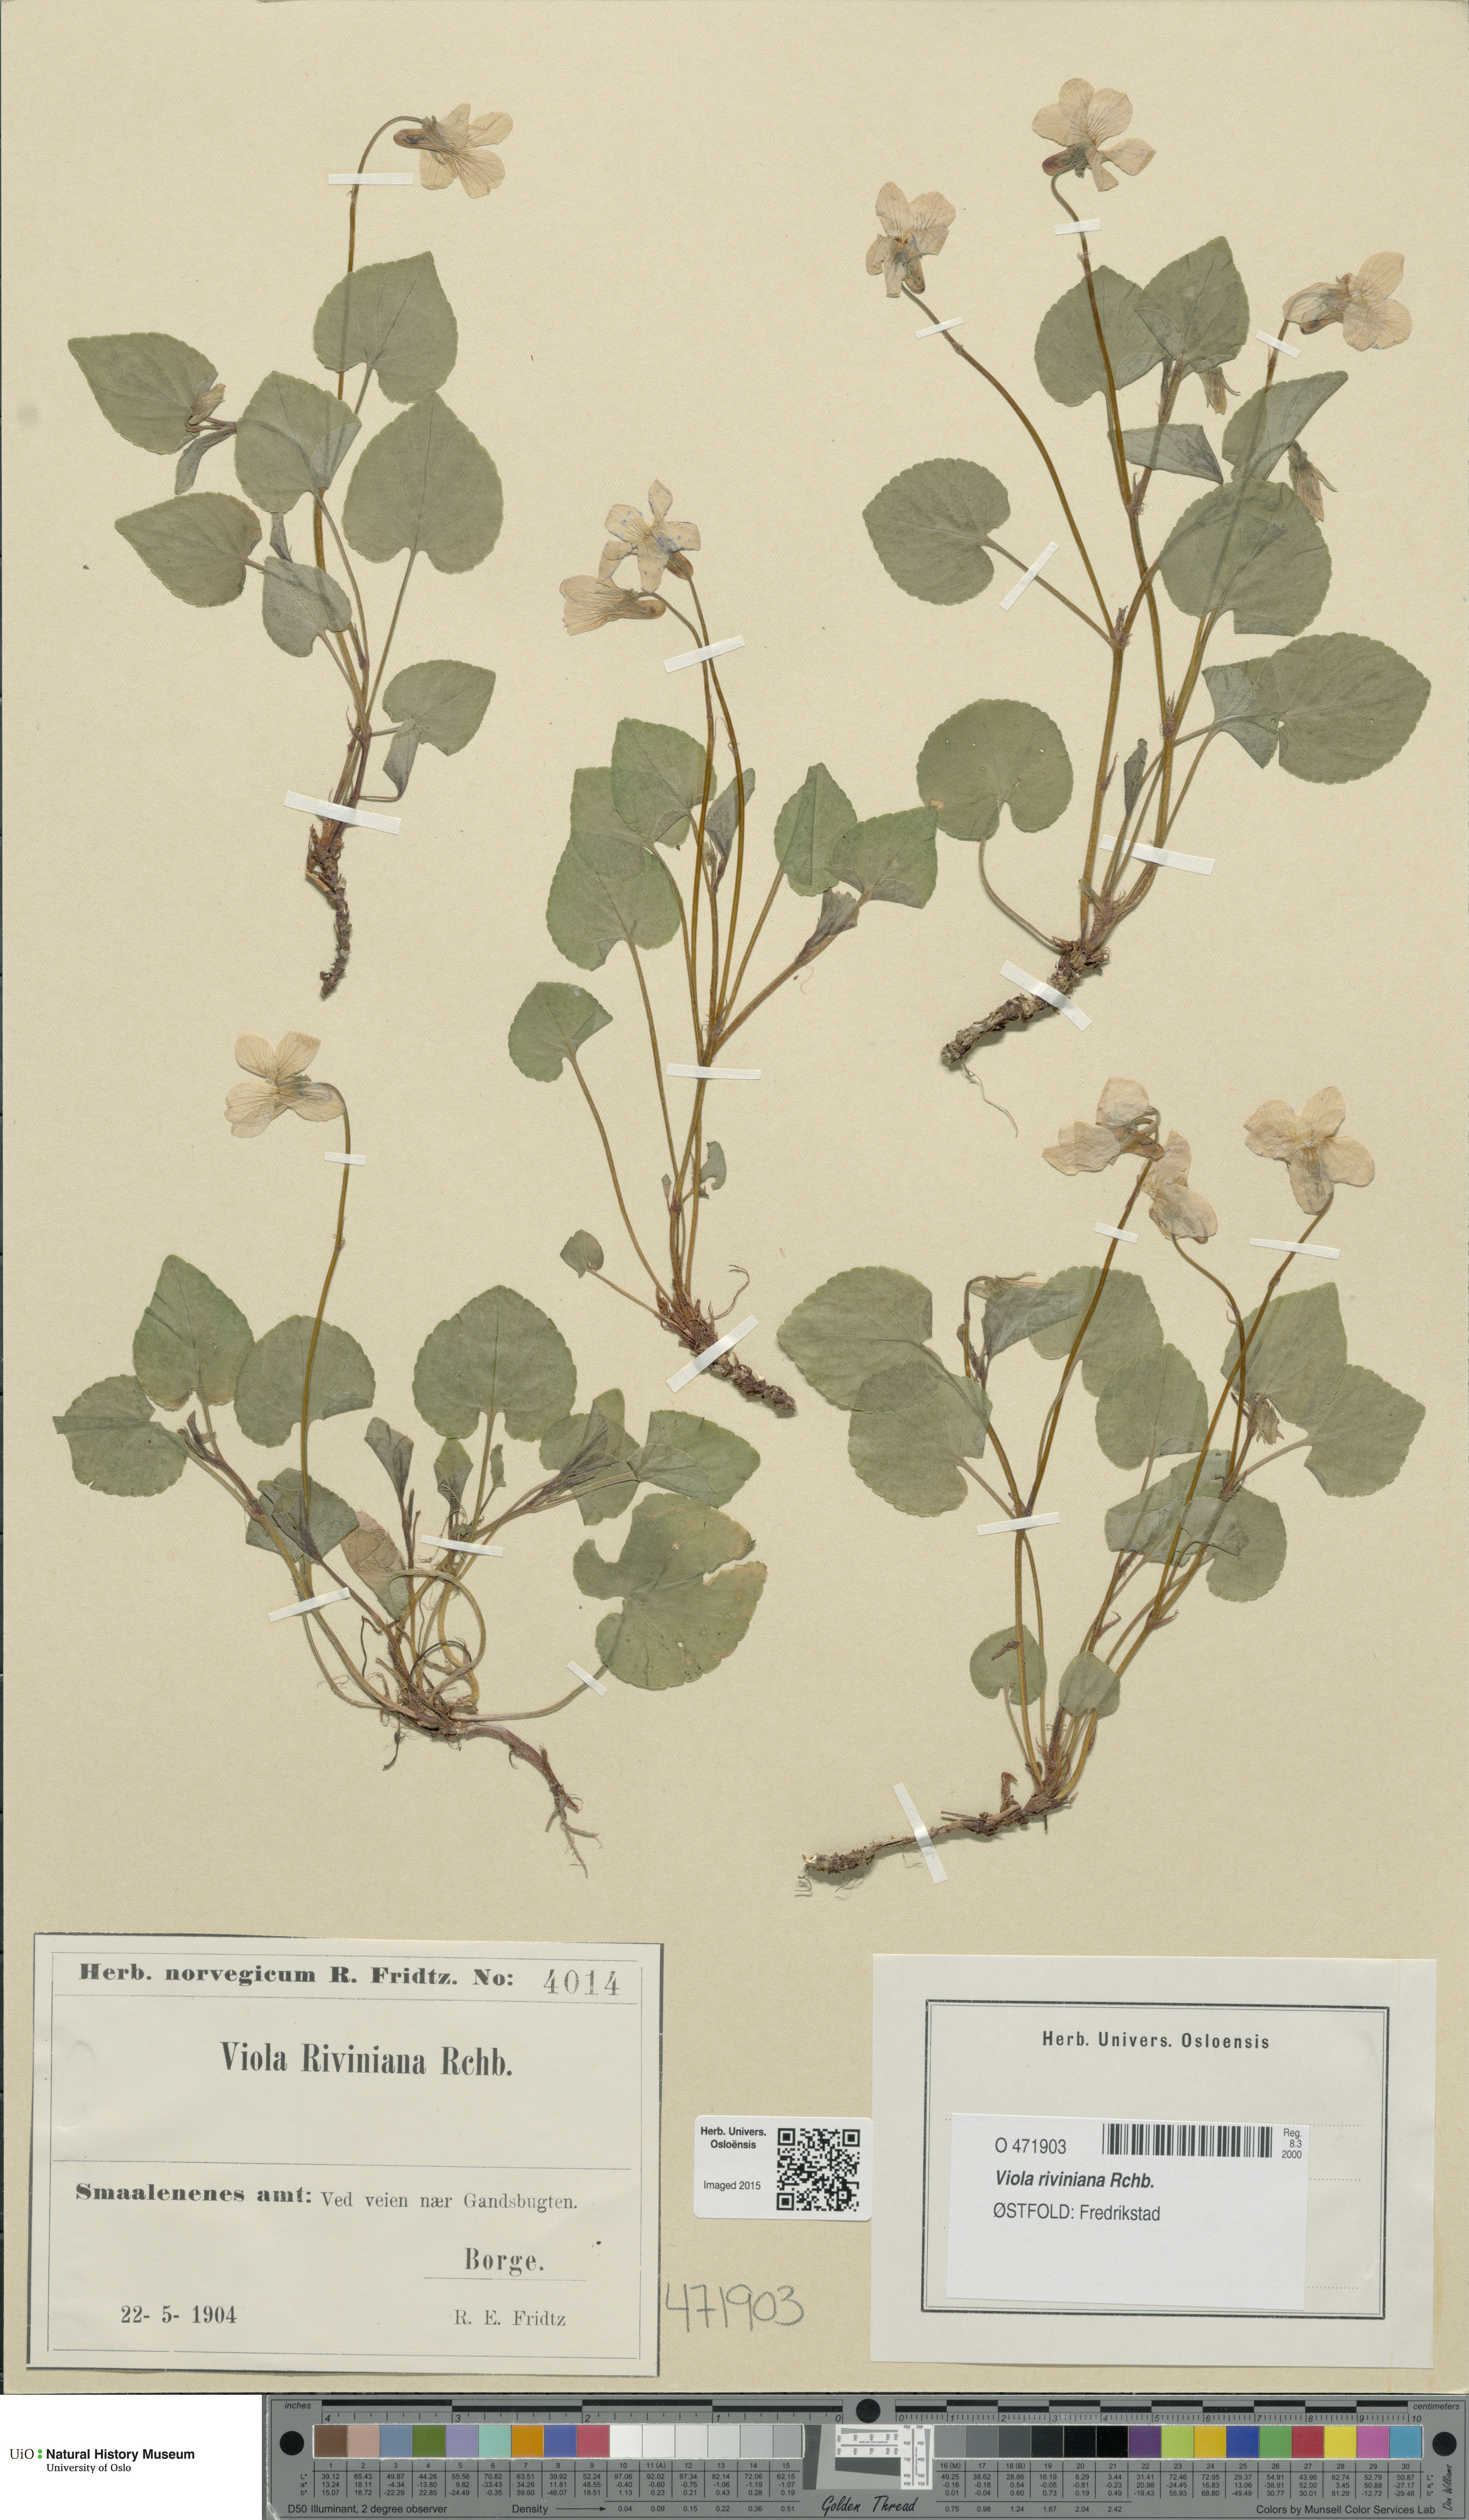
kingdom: Plantae
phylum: Tracheophyta
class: Magnoliopsida
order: Malpighiales
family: Violaceae
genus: Viola
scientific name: Viola riviniana
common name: Common dog-violet
